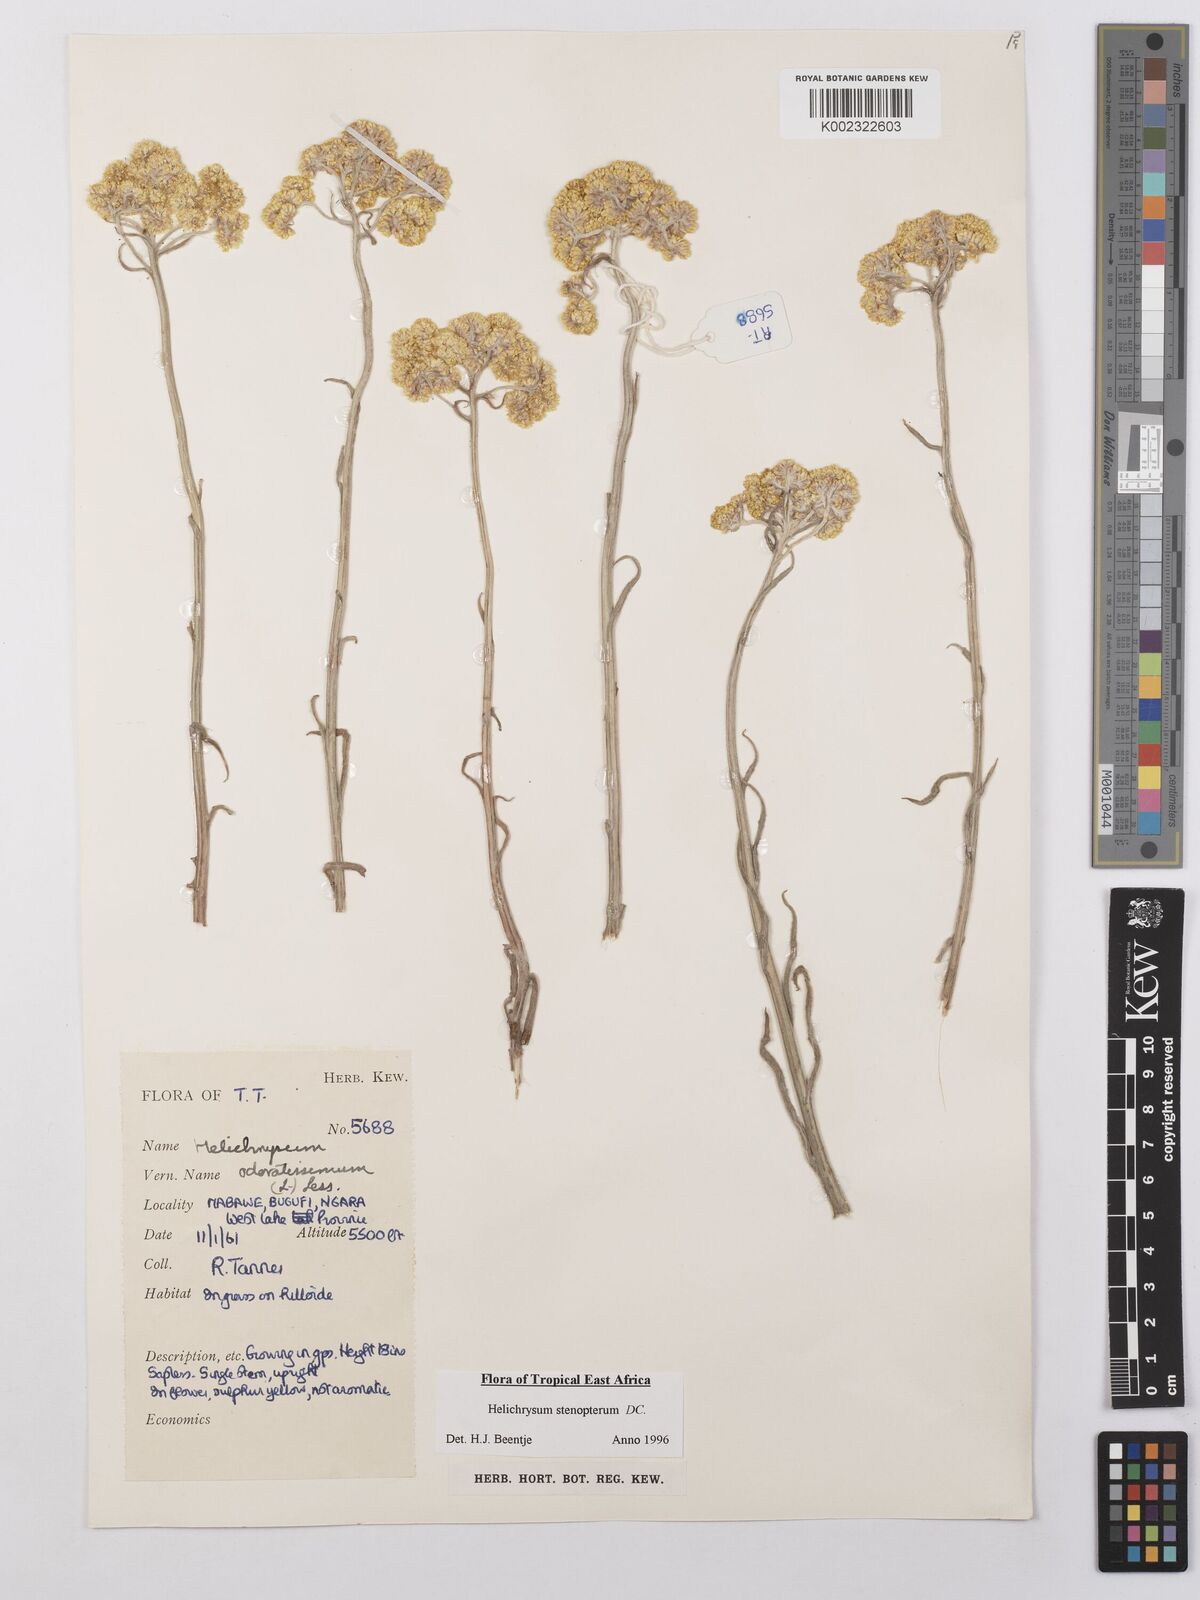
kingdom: Plantae
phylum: Tracheophyta
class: Magnoliopsida
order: Asterales
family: Asteraceae
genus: Helichrysum
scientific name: Helichrysum stenopterum
